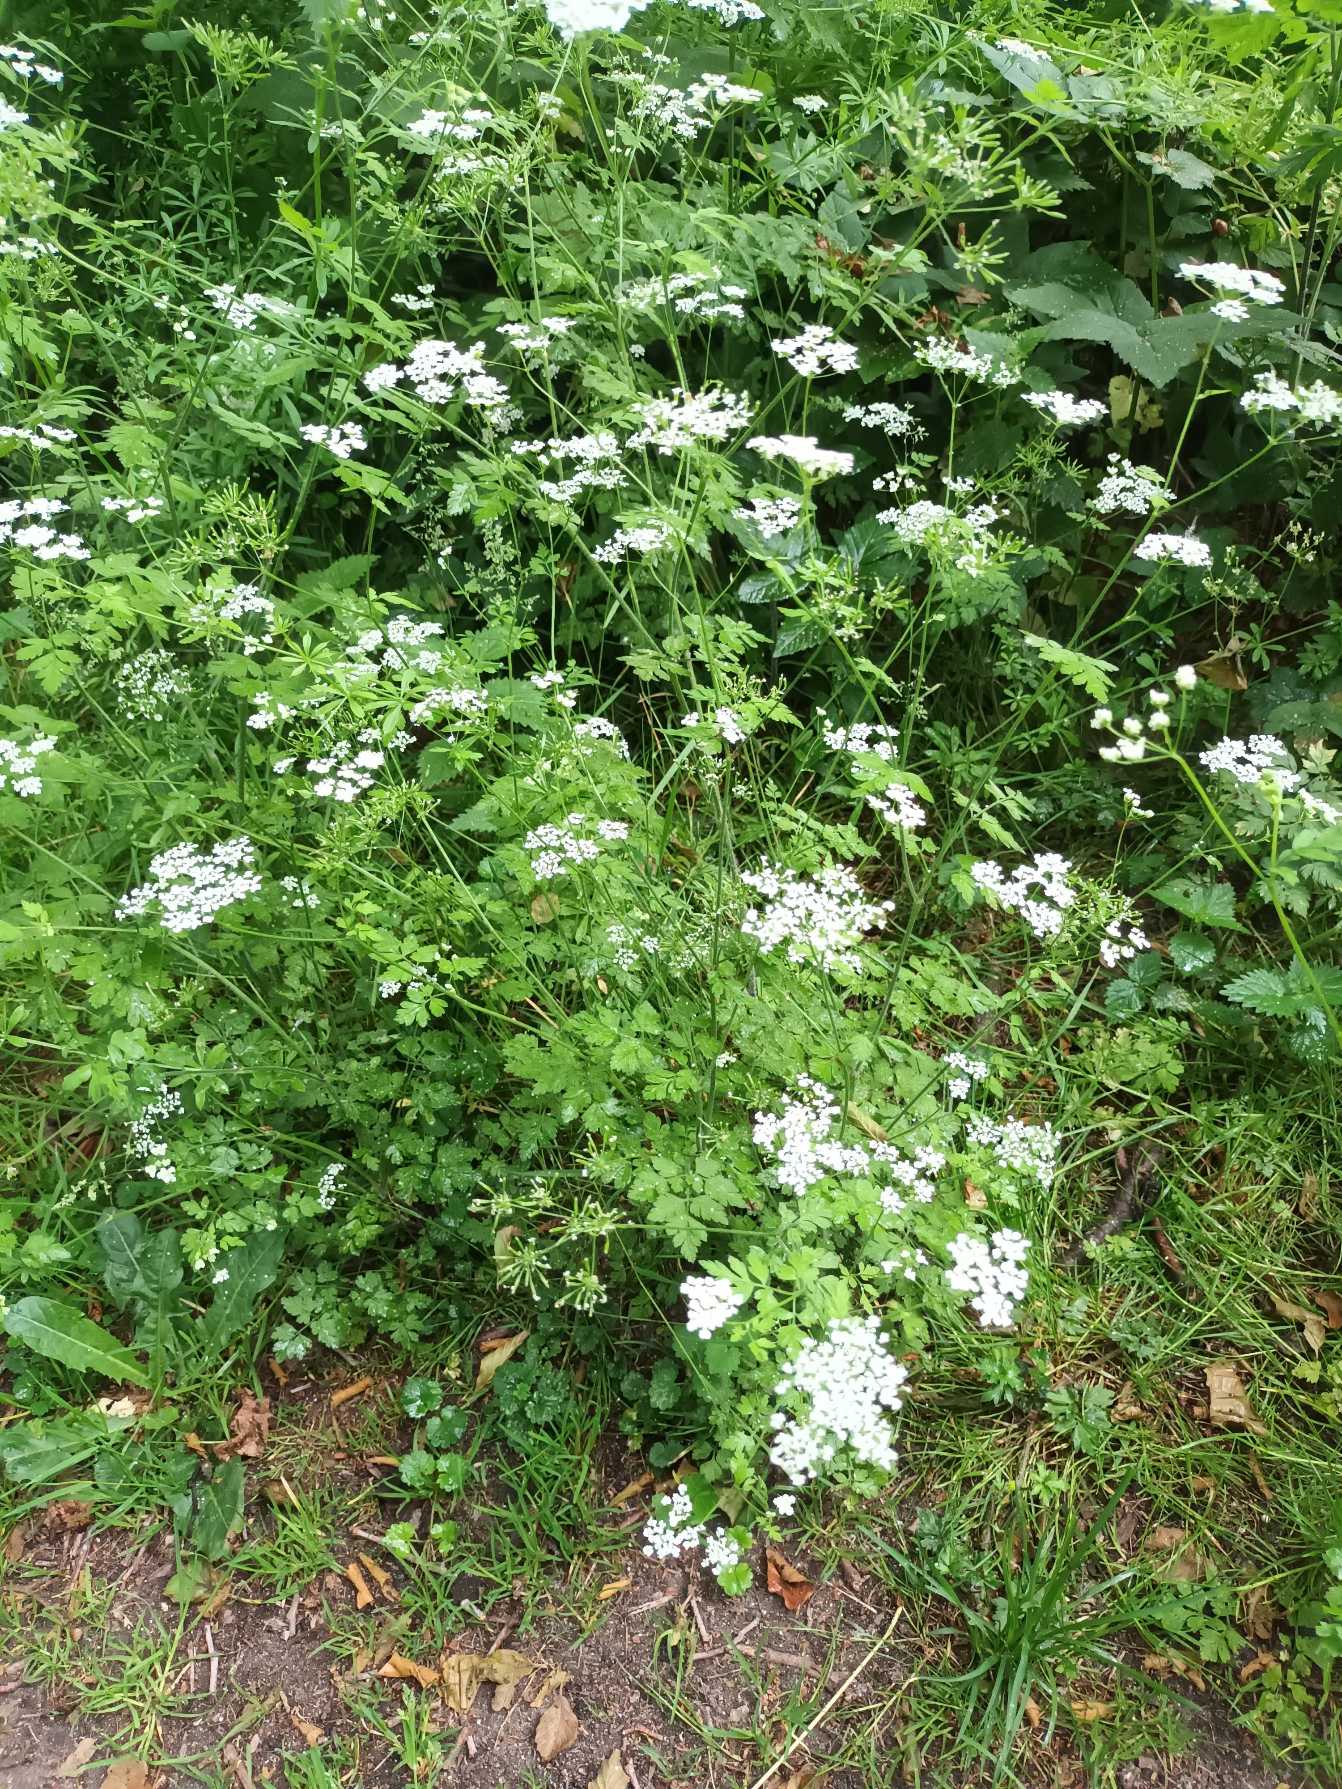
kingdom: Plantae
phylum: Tracheophyta
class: Magnoliopsida
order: Apiales
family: Apiaceae
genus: Chaerophyllum
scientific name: Chaerophyllum temulum
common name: Almindelig hulsvøb
